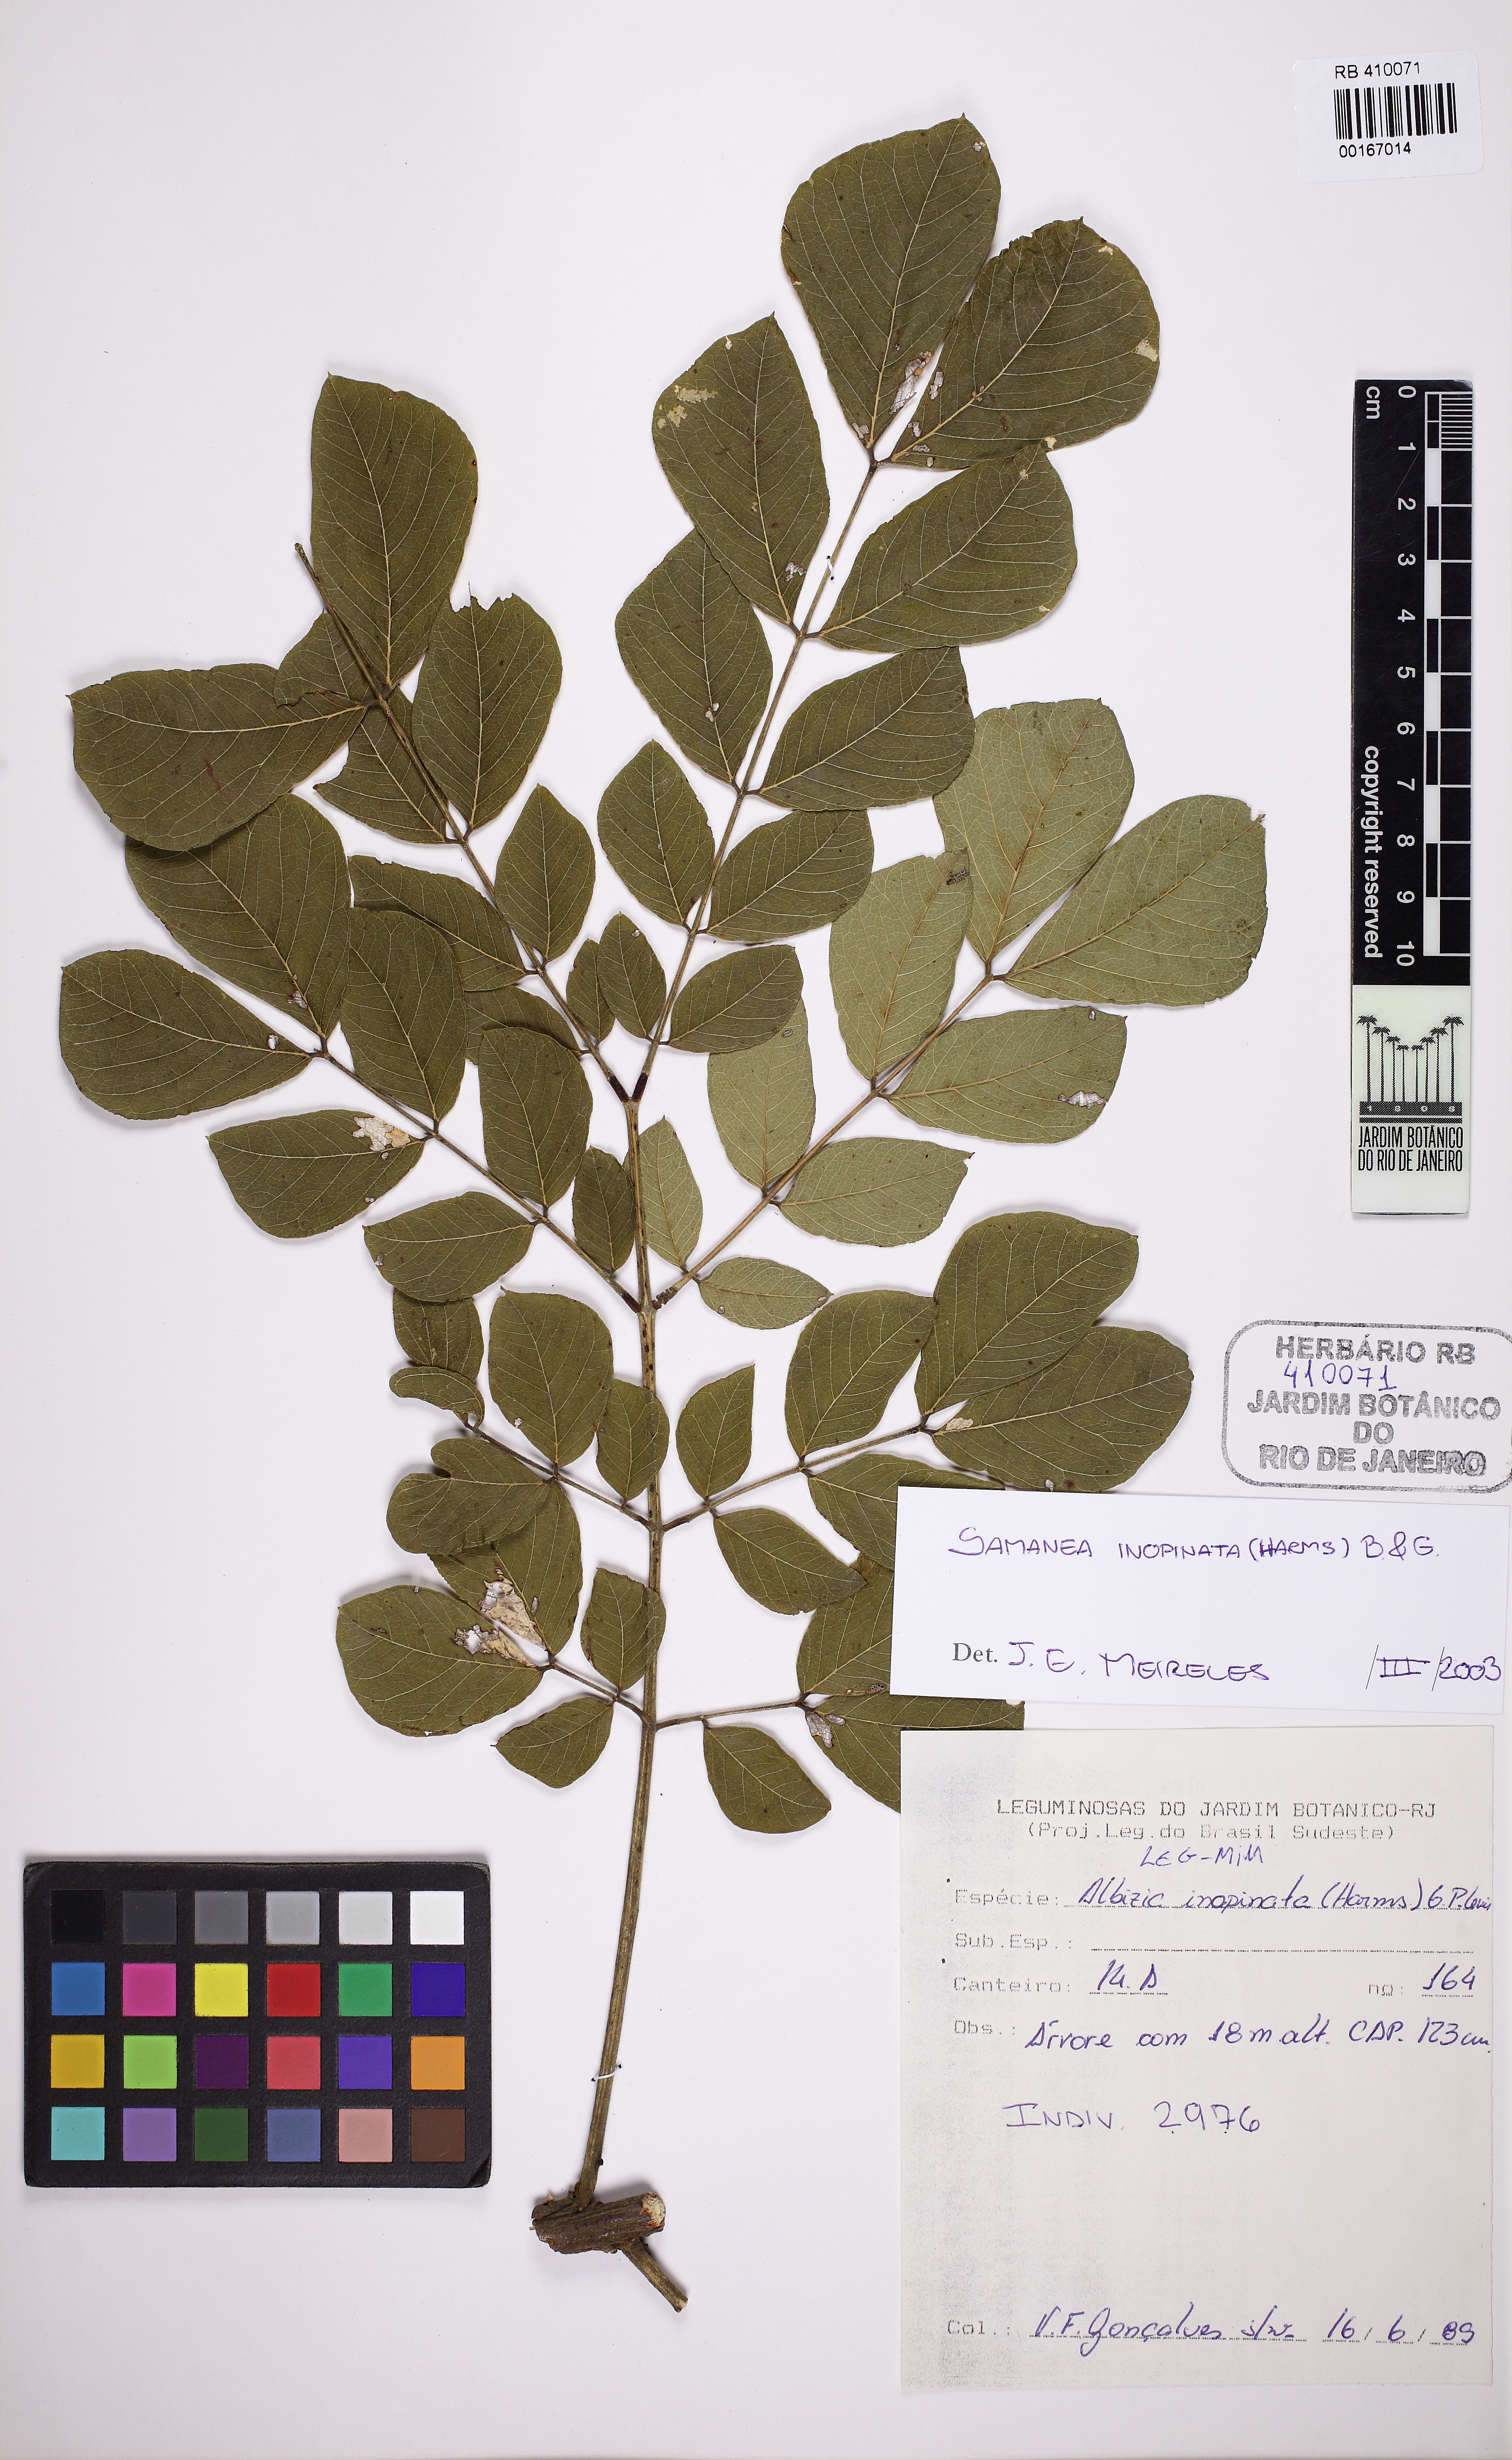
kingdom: Plantae
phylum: Tracheophyta
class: Magnoliopsida
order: Fabales
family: Fabaceae
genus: Samanea
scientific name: Samanea inopinata
